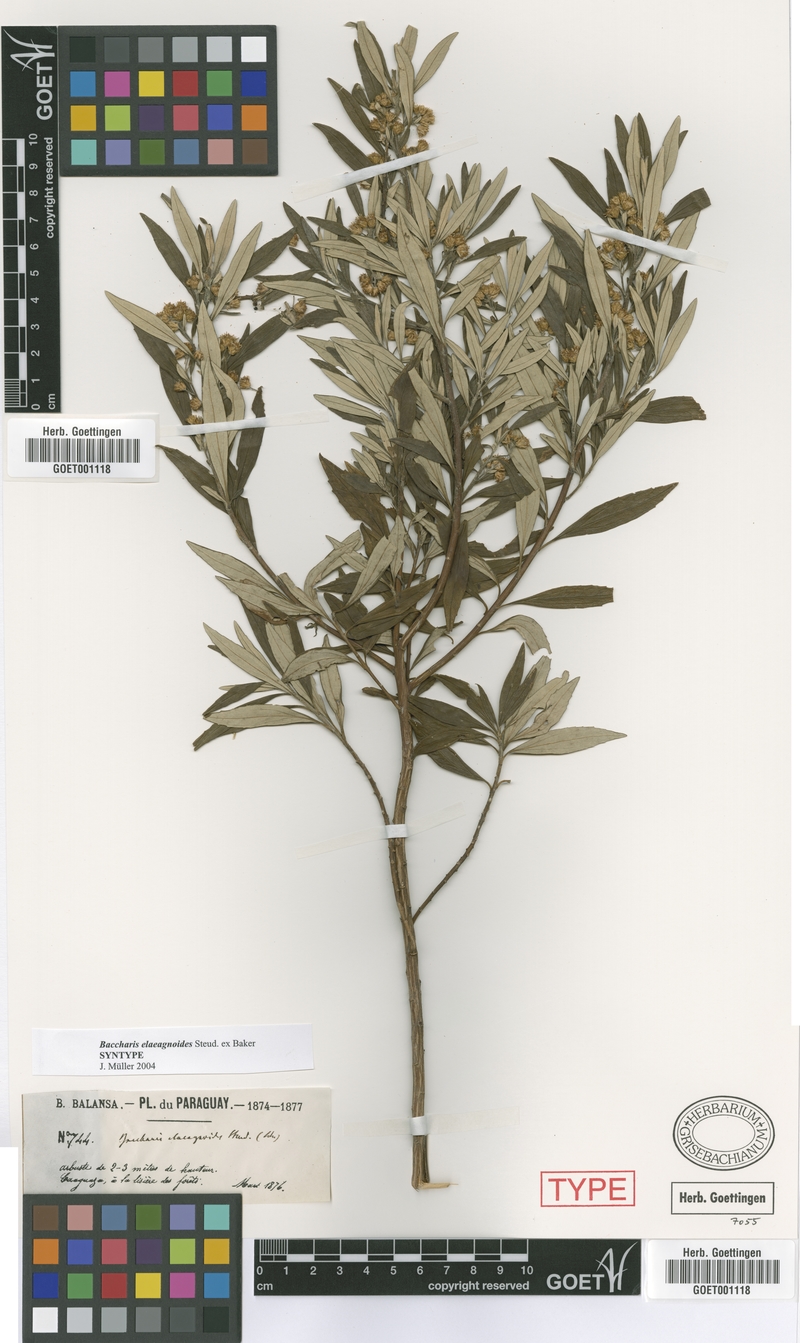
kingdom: Plantae
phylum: Tracheophyta
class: Magnoliopsida
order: Asterales
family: Asteraceae
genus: Baccharis
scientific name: Baccharis montana
